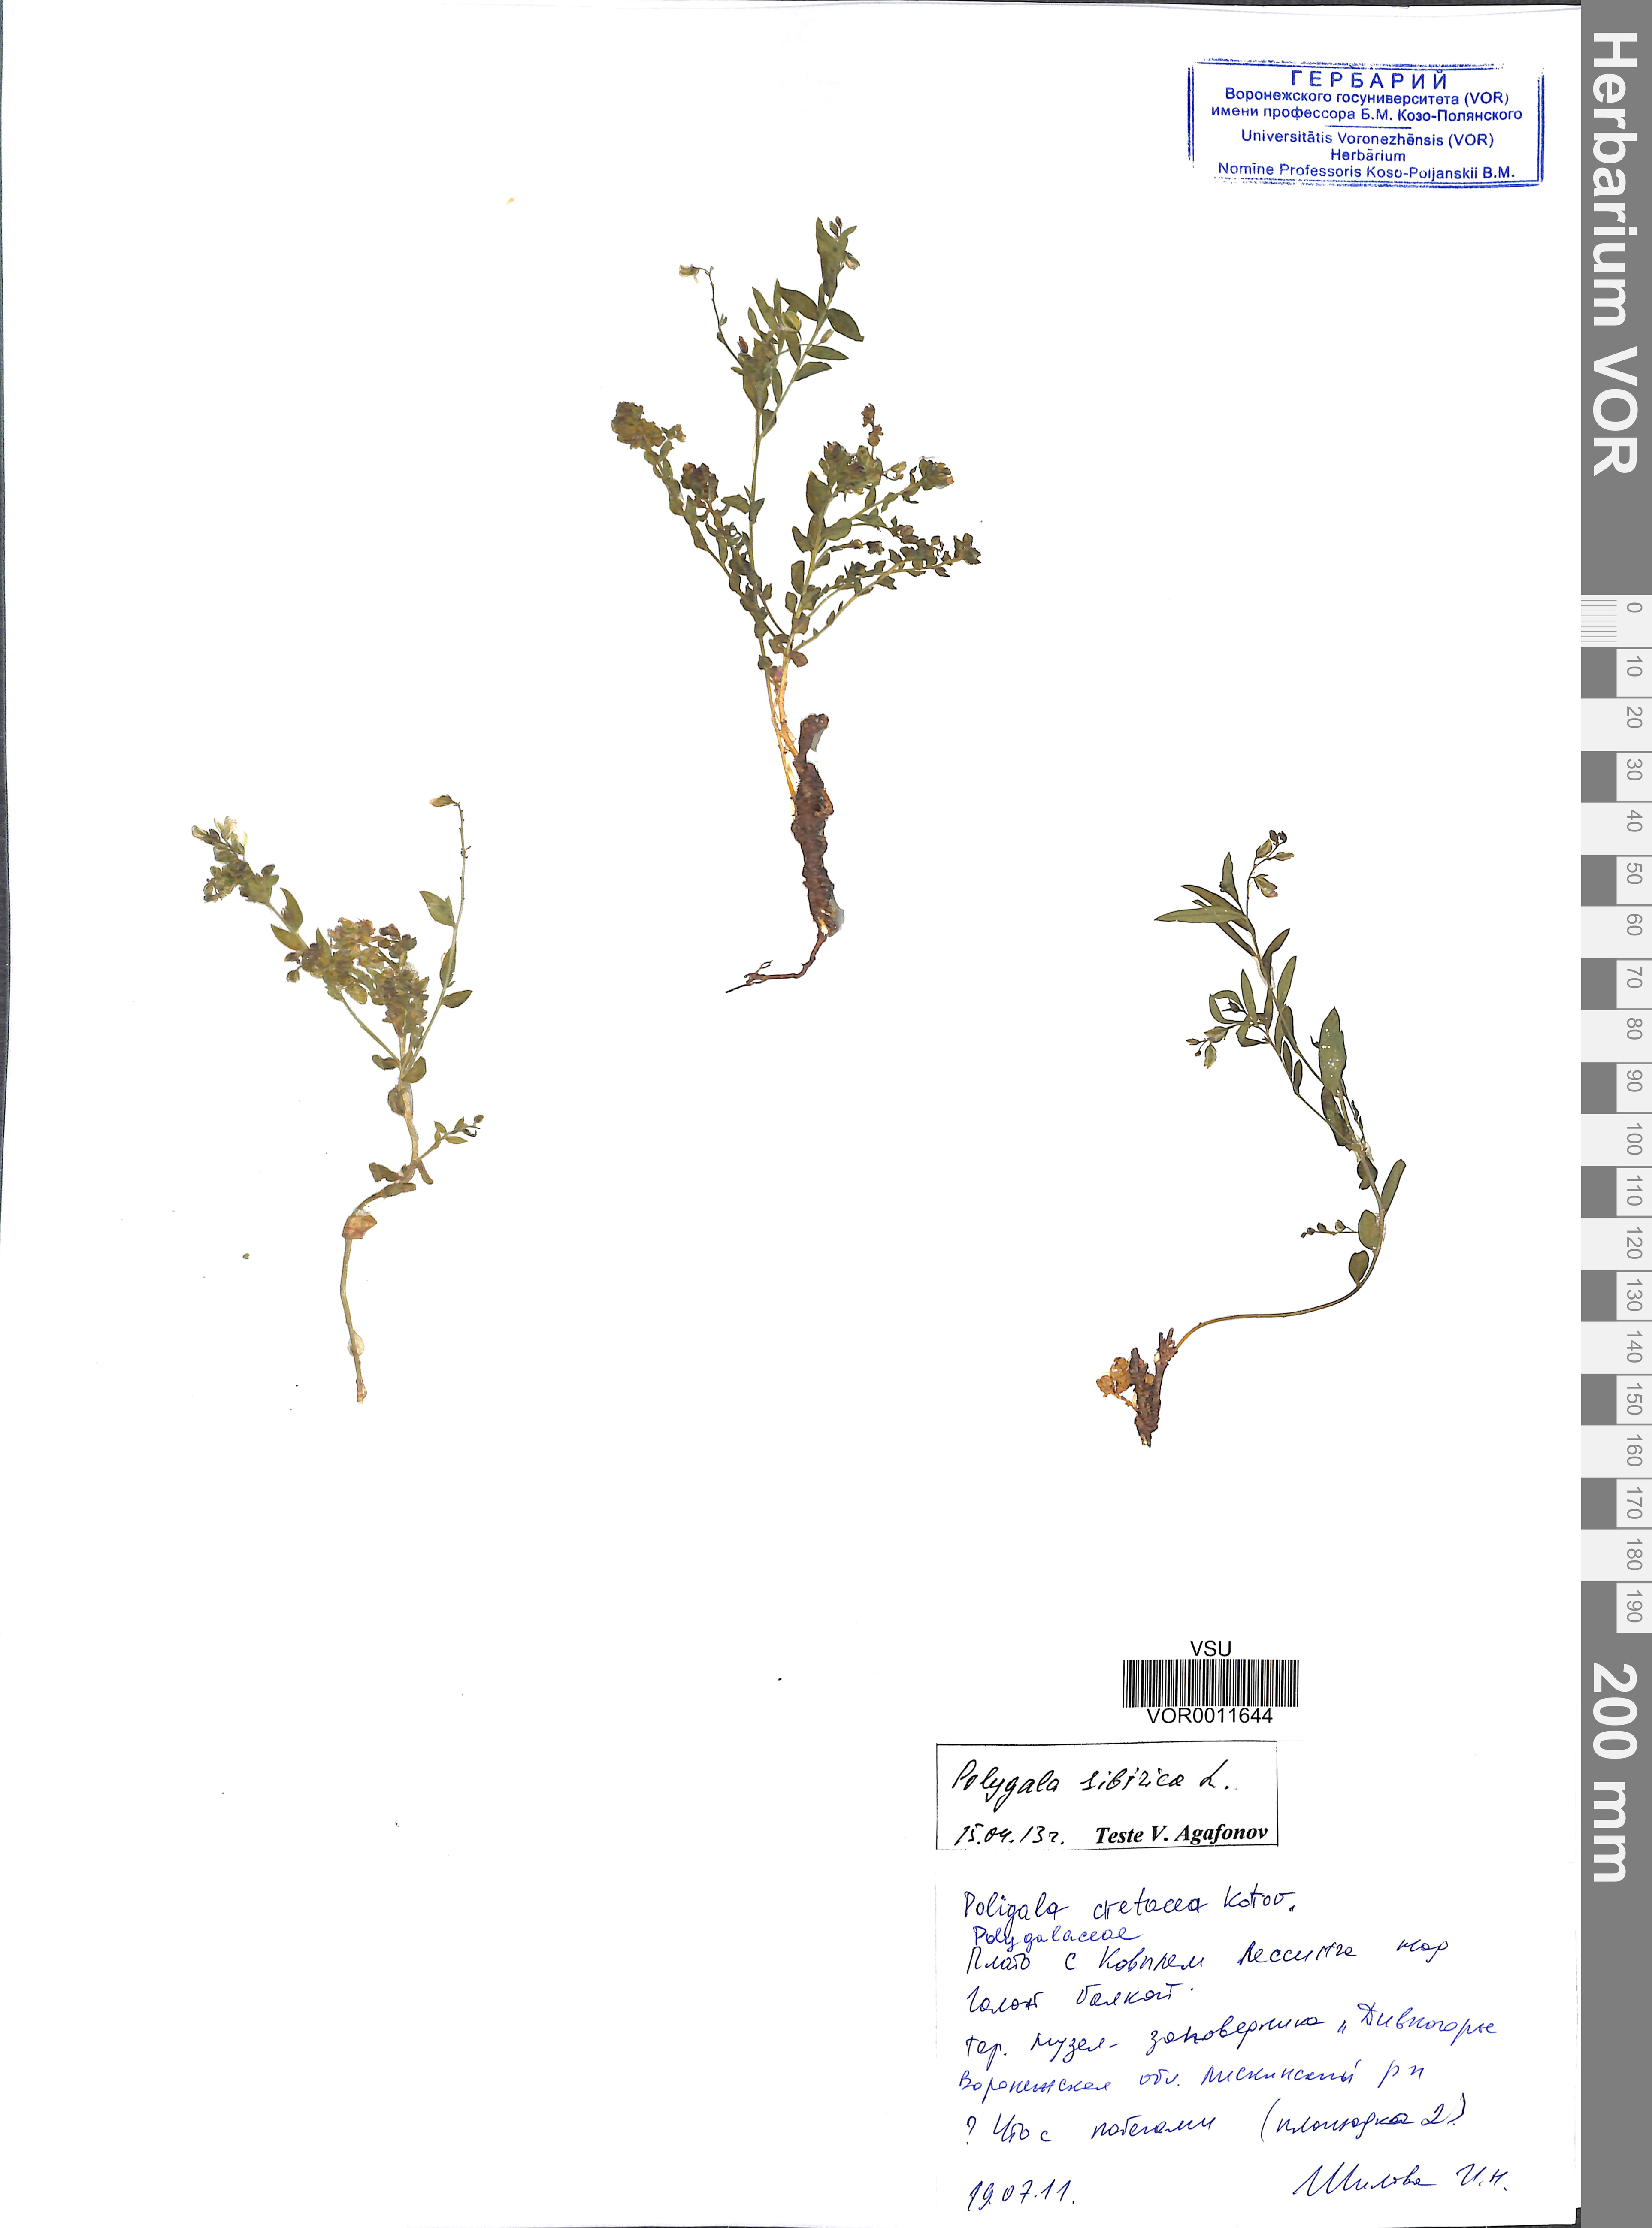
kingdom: Plantae
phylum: Tracheophyta
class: Magnoliopsida
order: Fabales
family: Polygalaceae
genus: Polygala
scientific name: Polygala sibirica
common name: Siberian polygala
